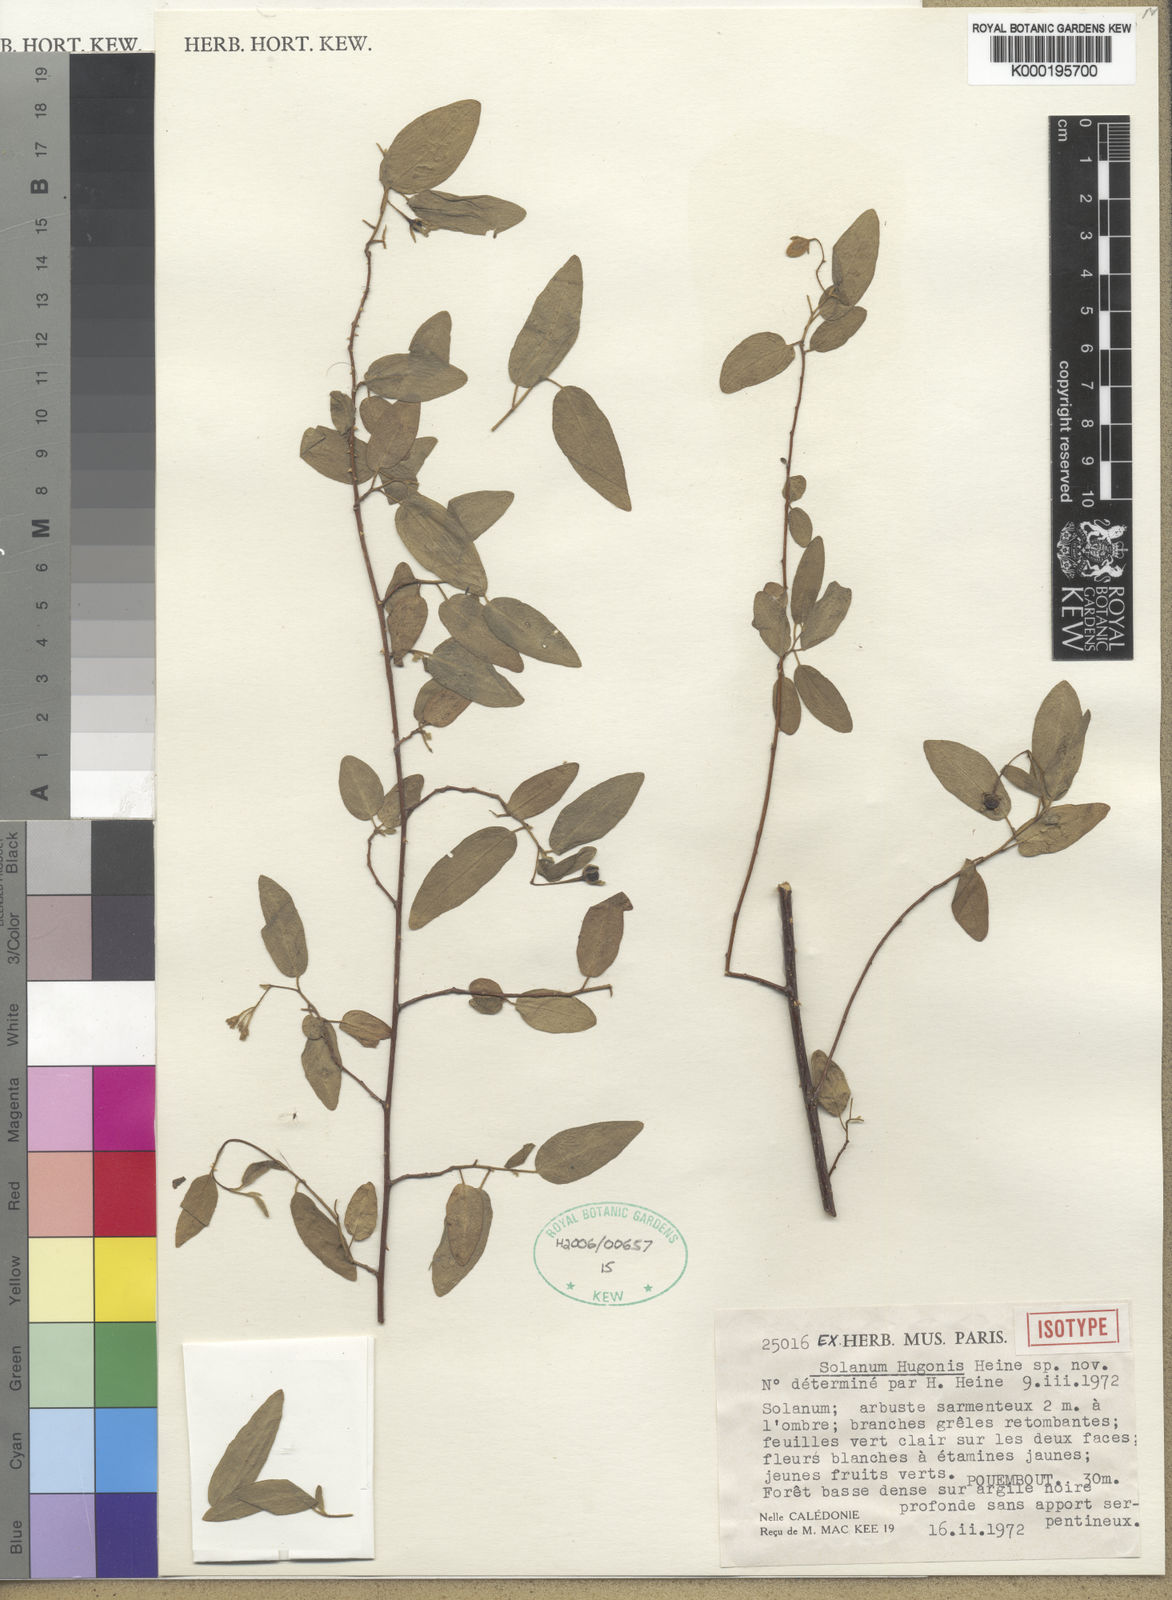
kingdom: Plantae
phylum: Tracheophyta
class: Magnoliopsida
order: Solanales
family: Solanaceae
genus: Solanum
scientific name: Solanum hugonis
